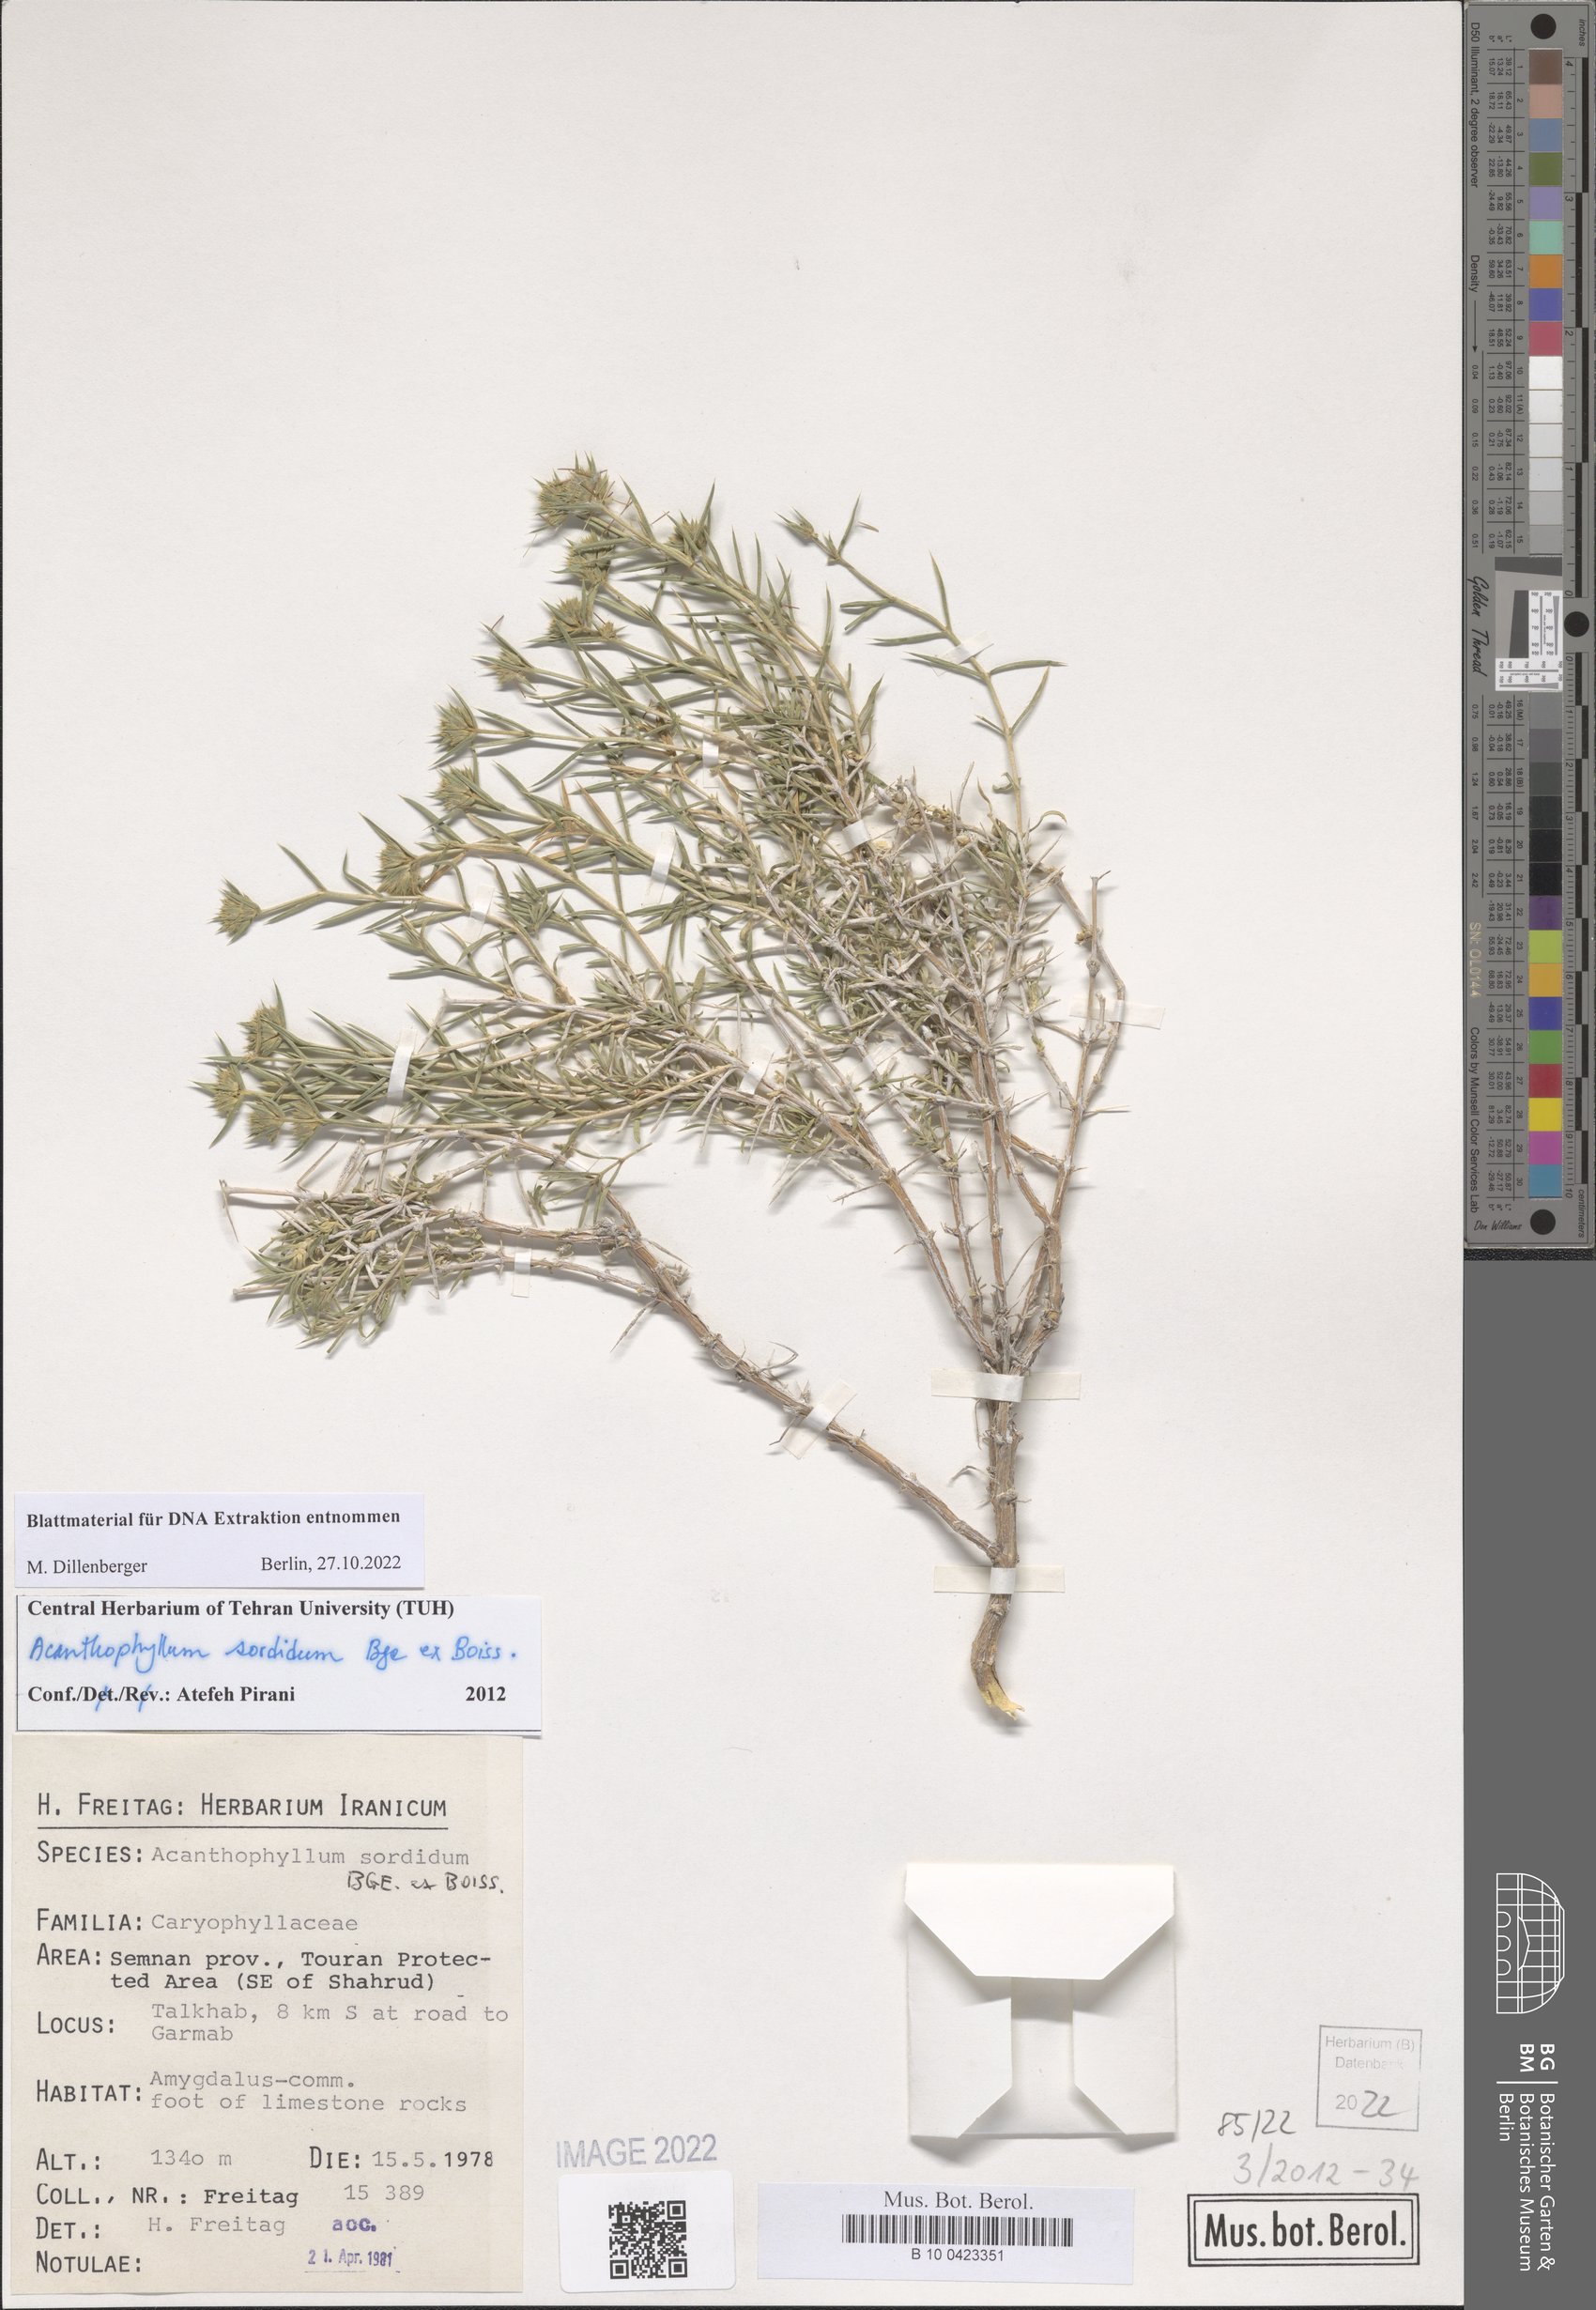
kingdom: Plantae
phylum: Tracheophyta
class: Magnoliopsida
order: Caryophyllales
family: Caryophyllaceae
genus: Acanthophyllum
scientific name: Acanthophyllum sordidum
